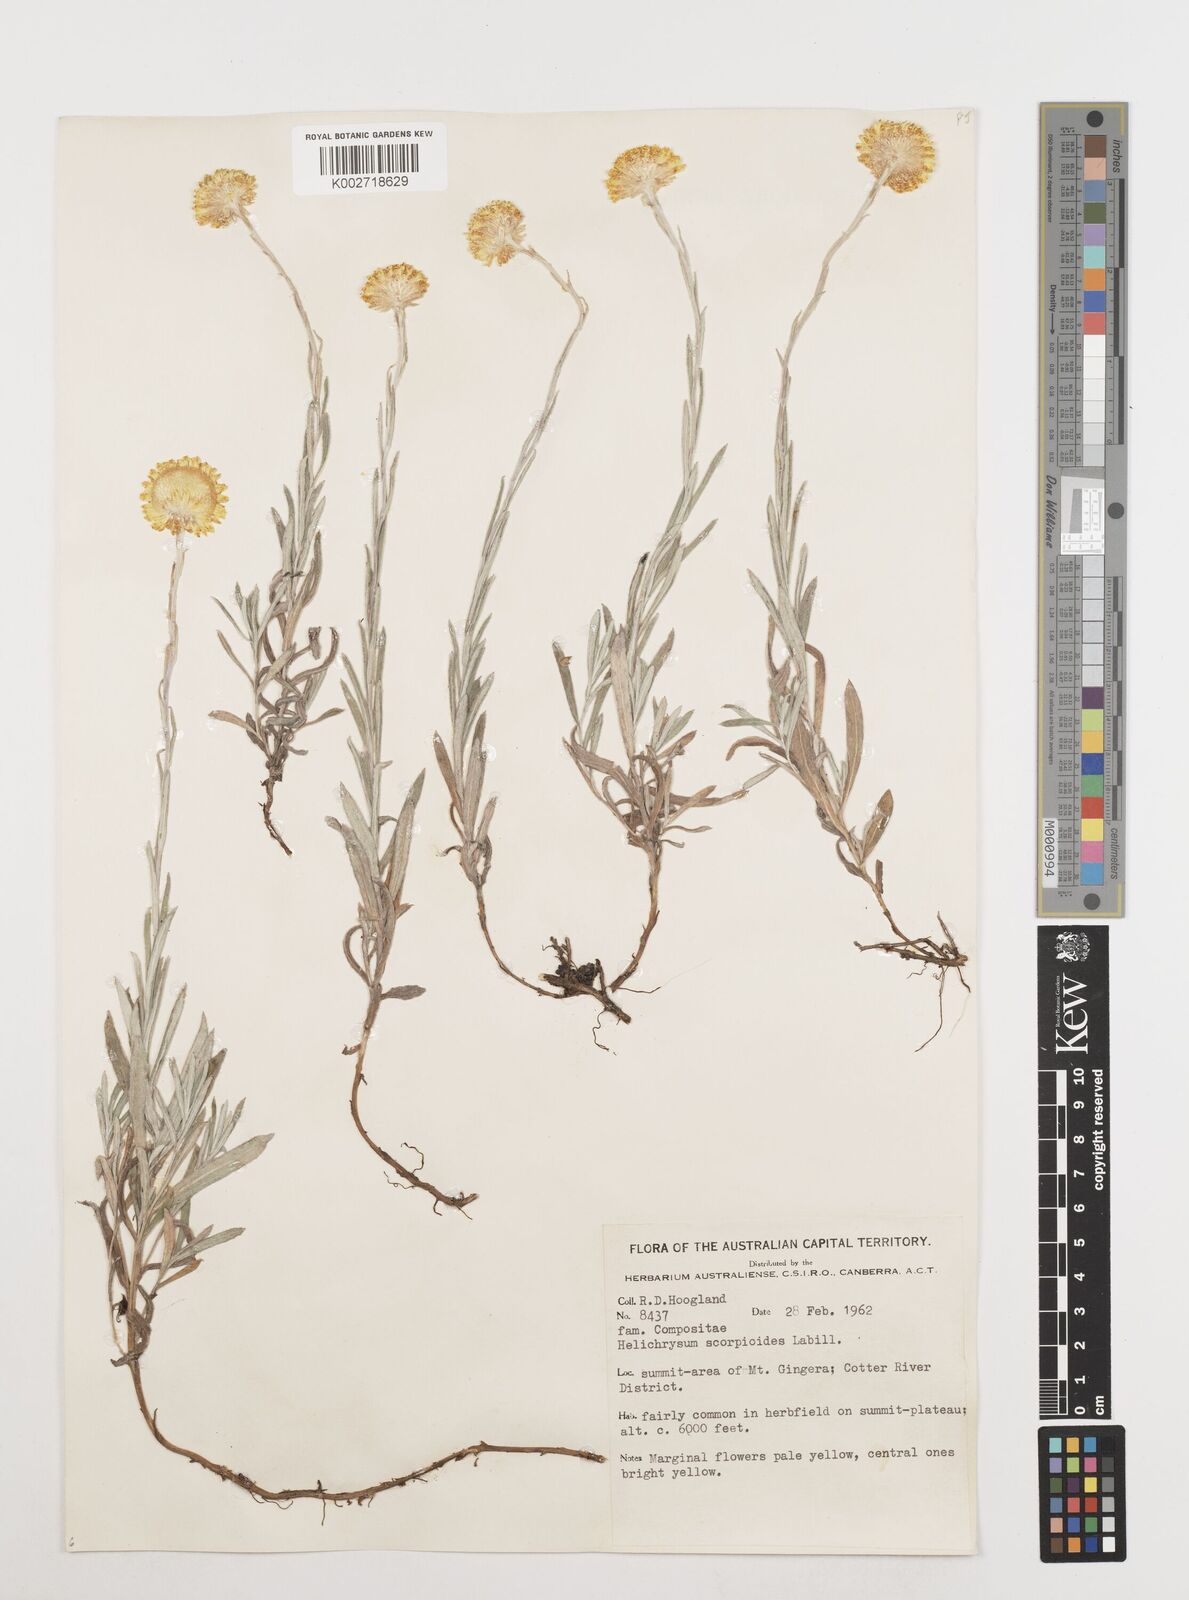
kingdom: Plantae
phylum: Tracheophyta
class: Magnoliopsida
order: Asterales
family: Asteraceae
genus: Coronidium
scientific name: Coronidium scorpioides
